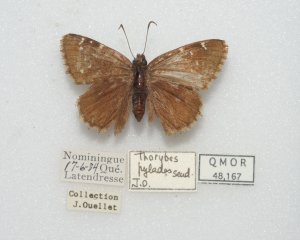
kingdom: Animalia
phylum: Arthropoda
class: Insecta
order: Lepidoptera
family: Hesperiidae
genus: Autochton
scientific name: Autochton
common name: Northern Cloudywing
